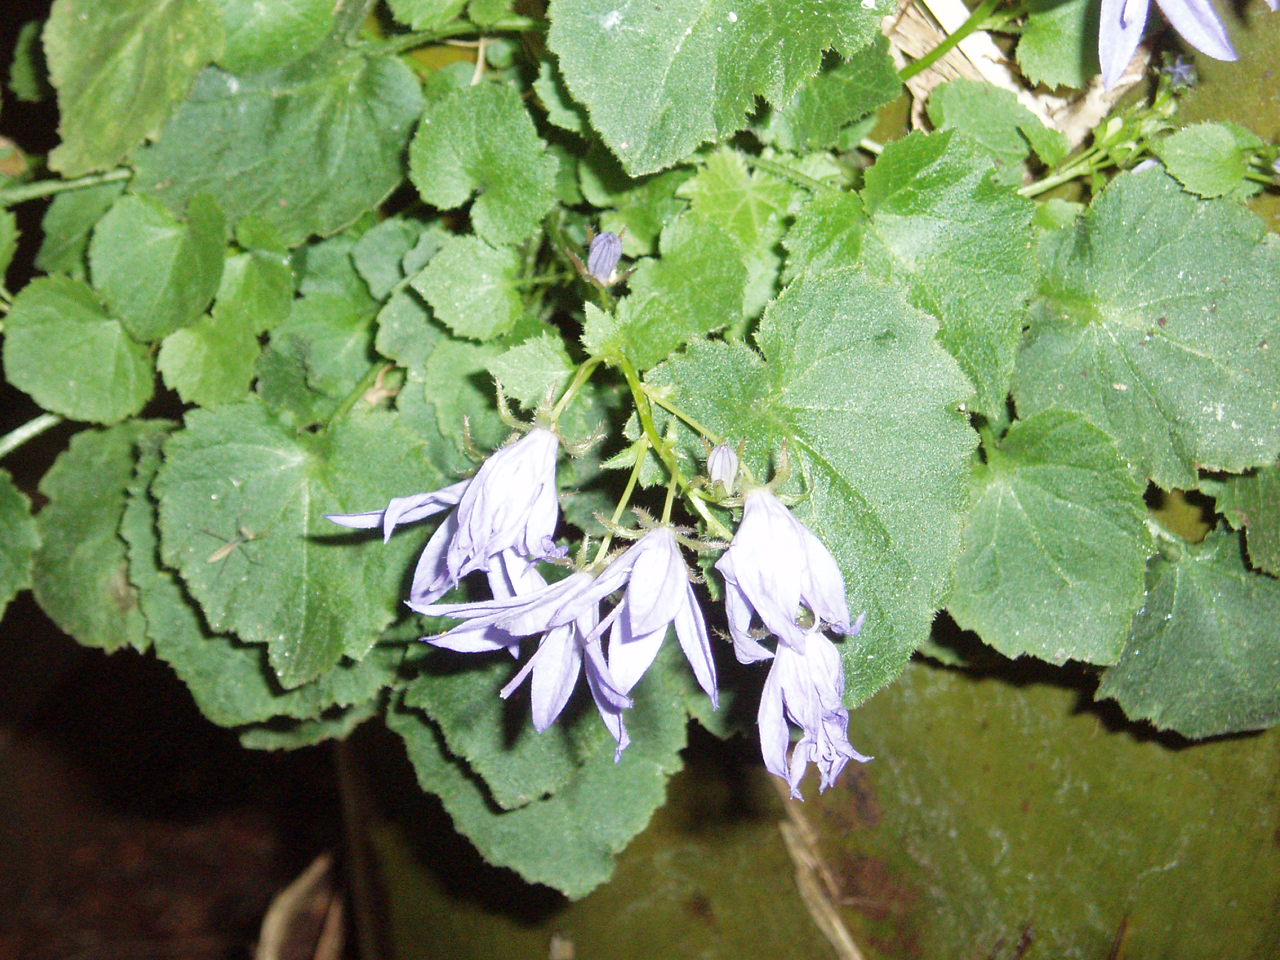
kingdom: Plantae
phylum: Tracheophyta
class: Magnoliopsida
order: Asterales
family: Campanulaceae
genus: Campanula
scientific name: Campanula poscharskyana
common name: Trailing bellflower
